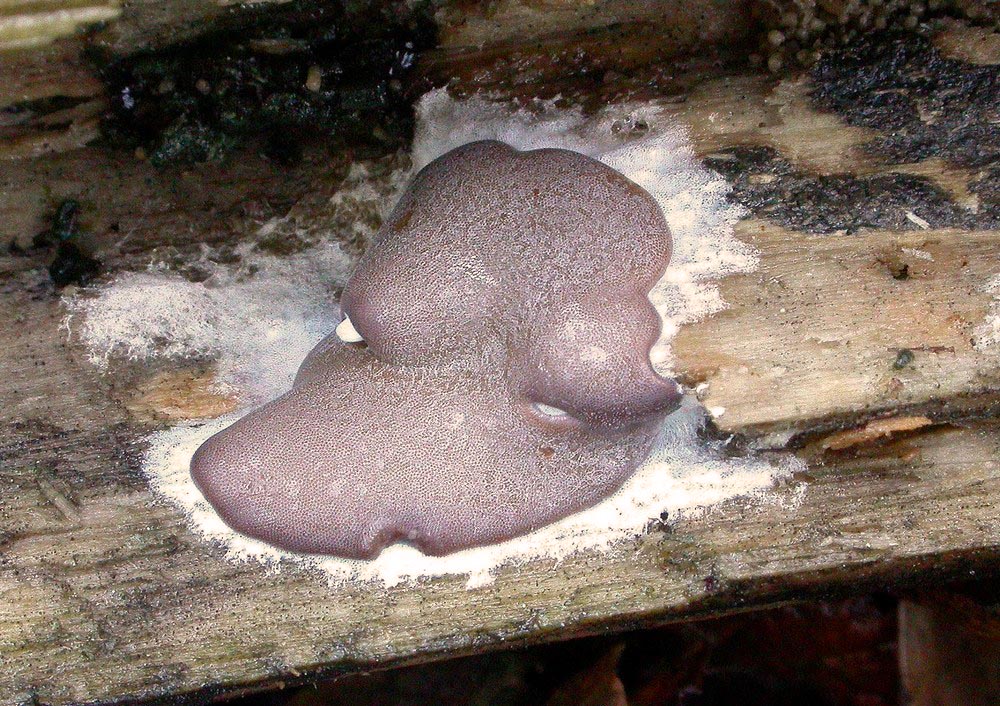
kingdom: Protozoa
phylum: Mycetozoa
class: Myxomycetes
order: Trichiales
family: Dictydiaethaliaceae
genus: Dictydiaethalium
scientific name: Dictydiaethalium plumbeum
